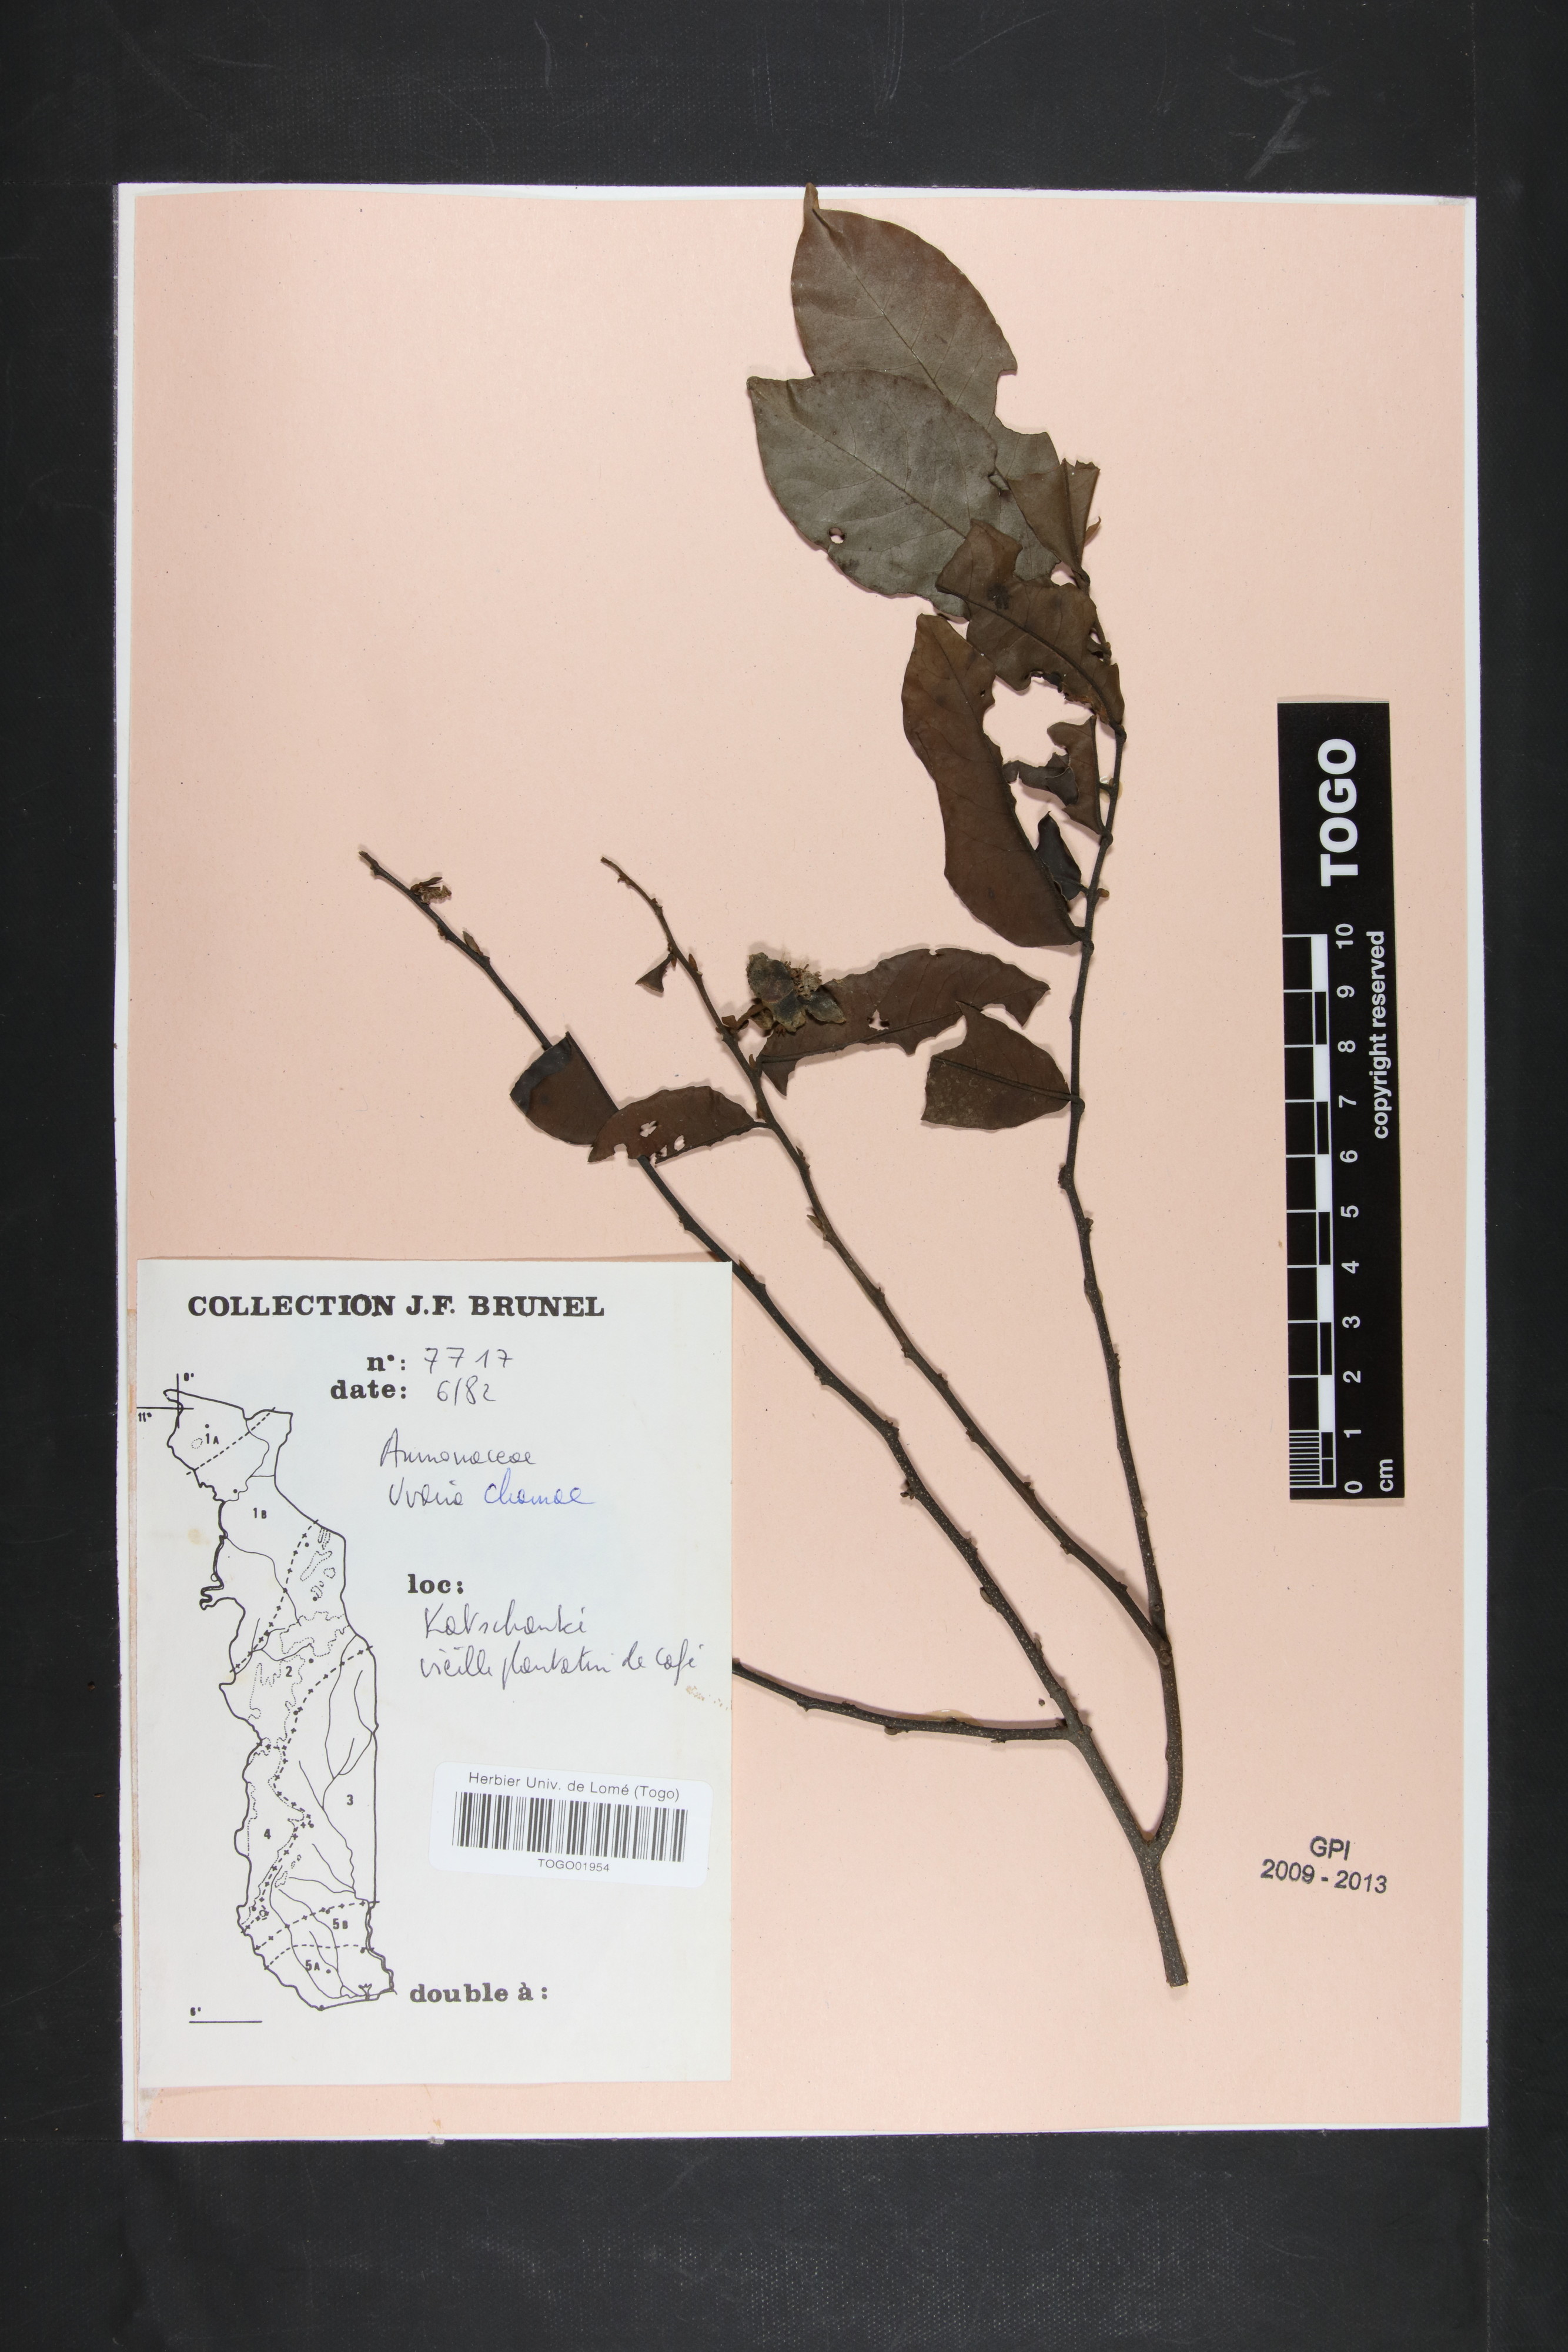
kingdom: Plantae
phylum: Tracheophyta
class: Magnoliopsida
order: Magnoliales
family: Annonaceae
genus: Uvaria
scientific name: Uvaria chamae
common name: Finger-root
